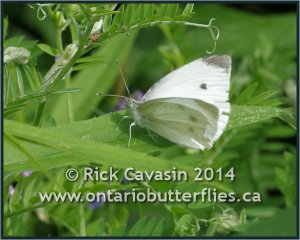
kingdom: Animalia
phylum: Arthropoda
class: Insecta
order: Lepidoptera
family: Pieridae
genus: Pieris
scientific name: Pieris rapae
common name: Cabbage White
